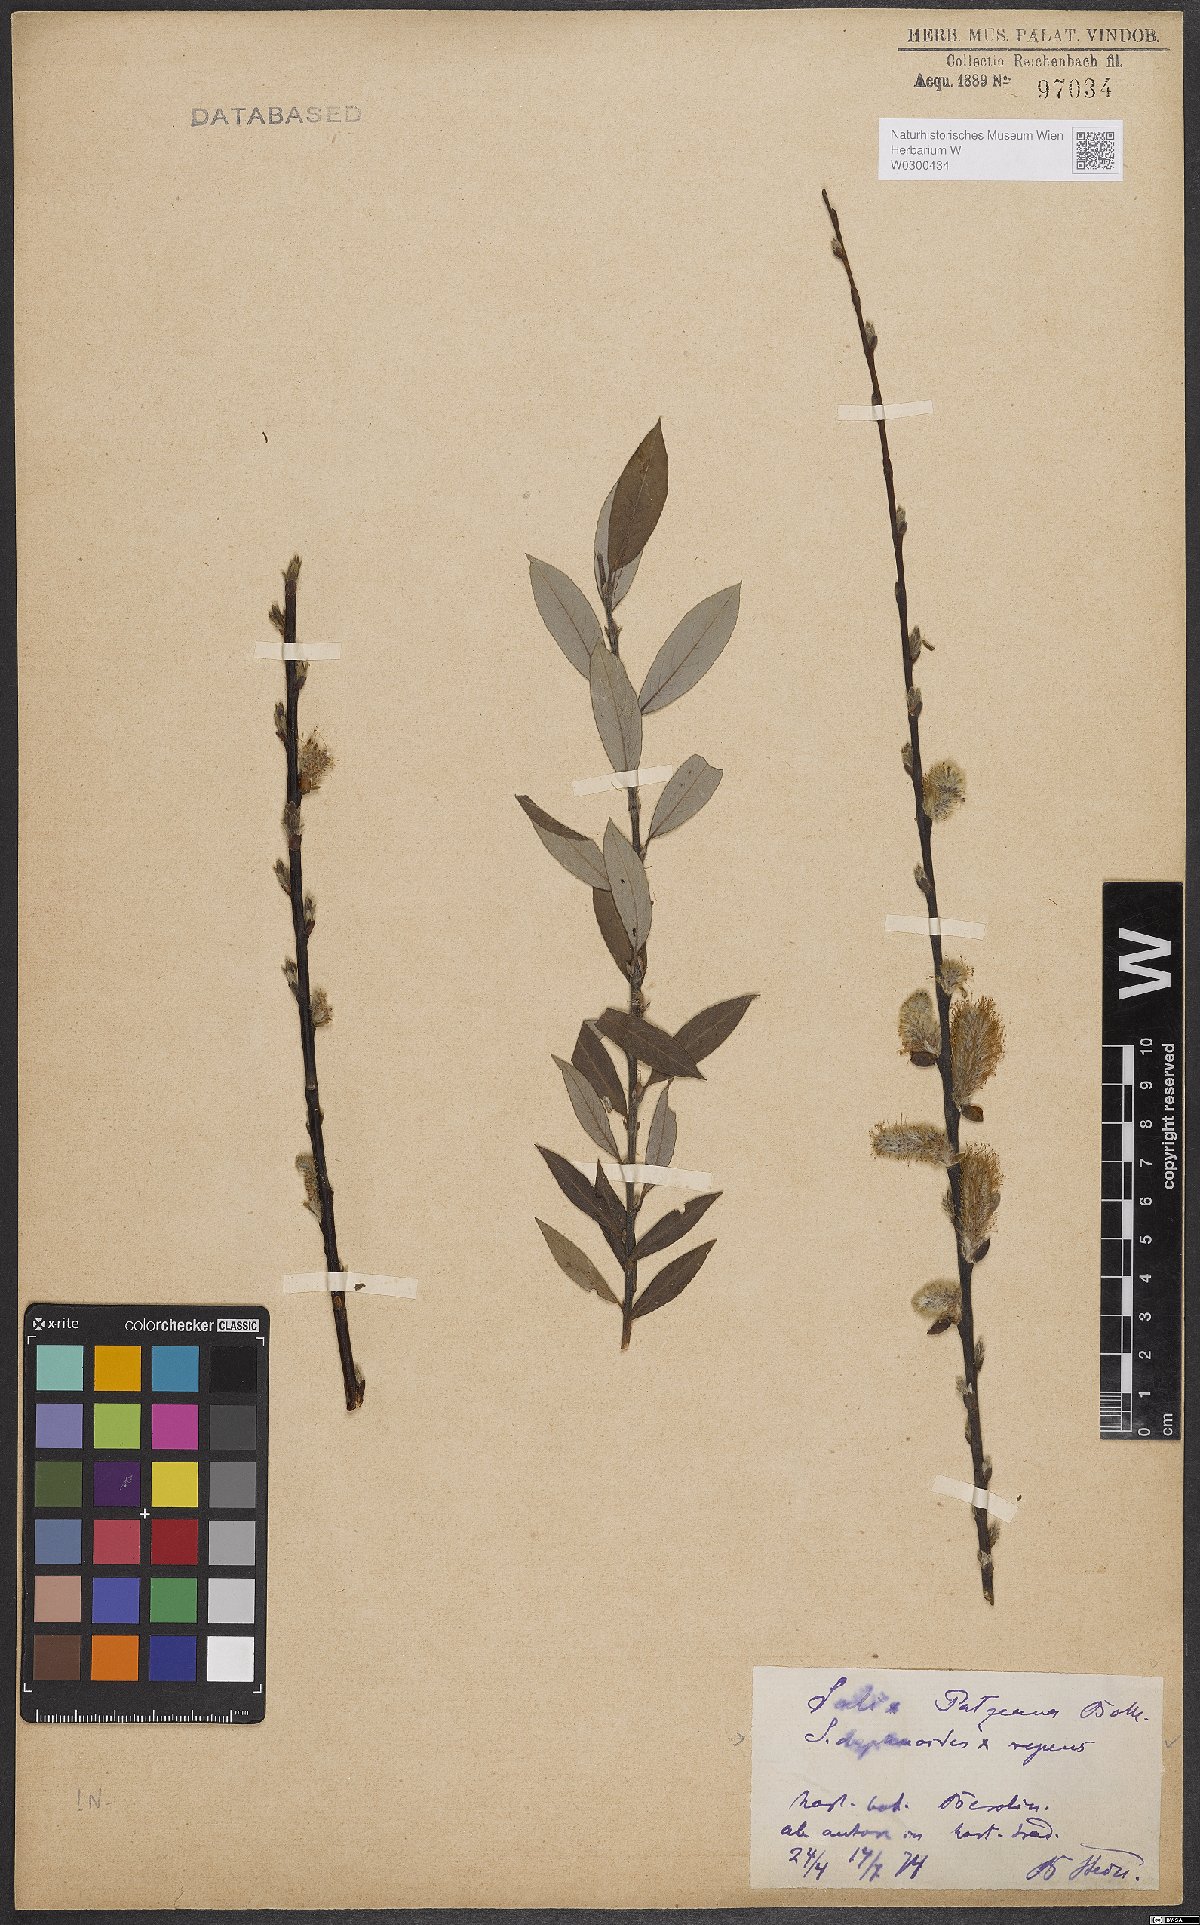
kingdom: Plantae
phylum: Tracheophyta
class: Magnoliopsida
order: Malpighiales
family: Salicaceae
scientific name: Salicaceae
